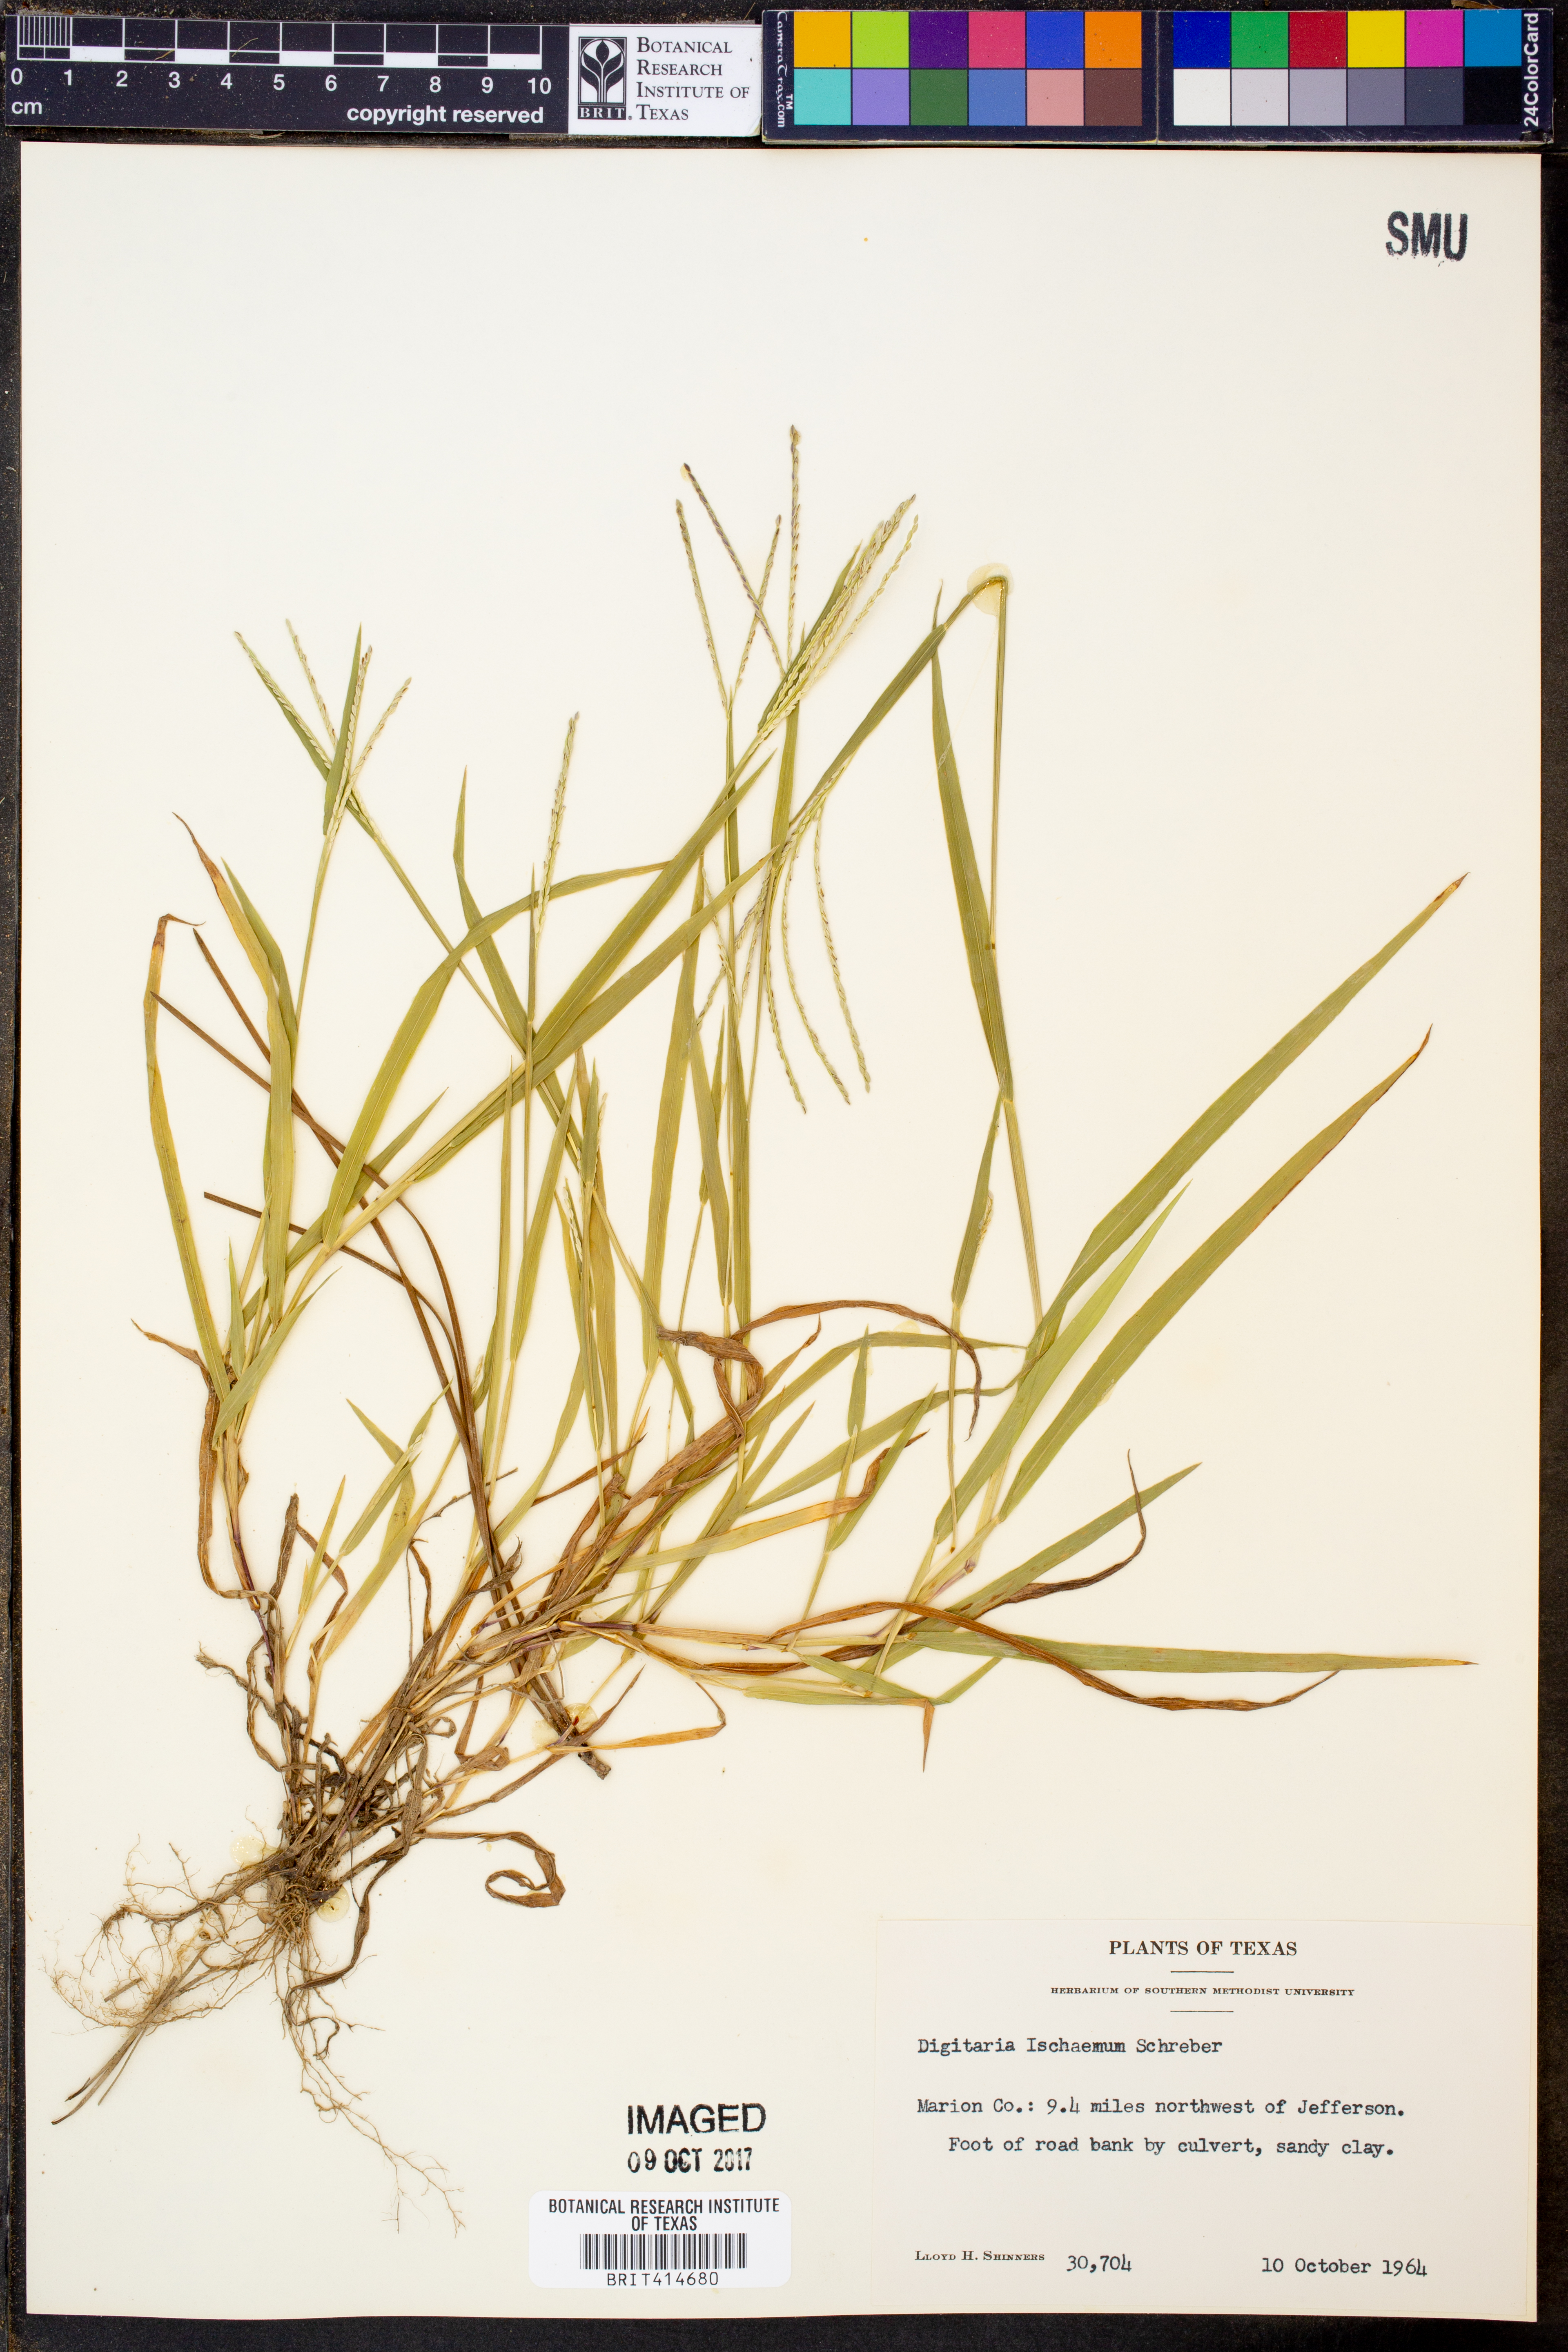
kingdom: Plantae
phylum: Tracheophyta
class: Liliopsida
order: Poales
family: Poaceae
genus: Digitaria
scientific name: Digitaria ischaemum
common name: Smooth crabgrass
